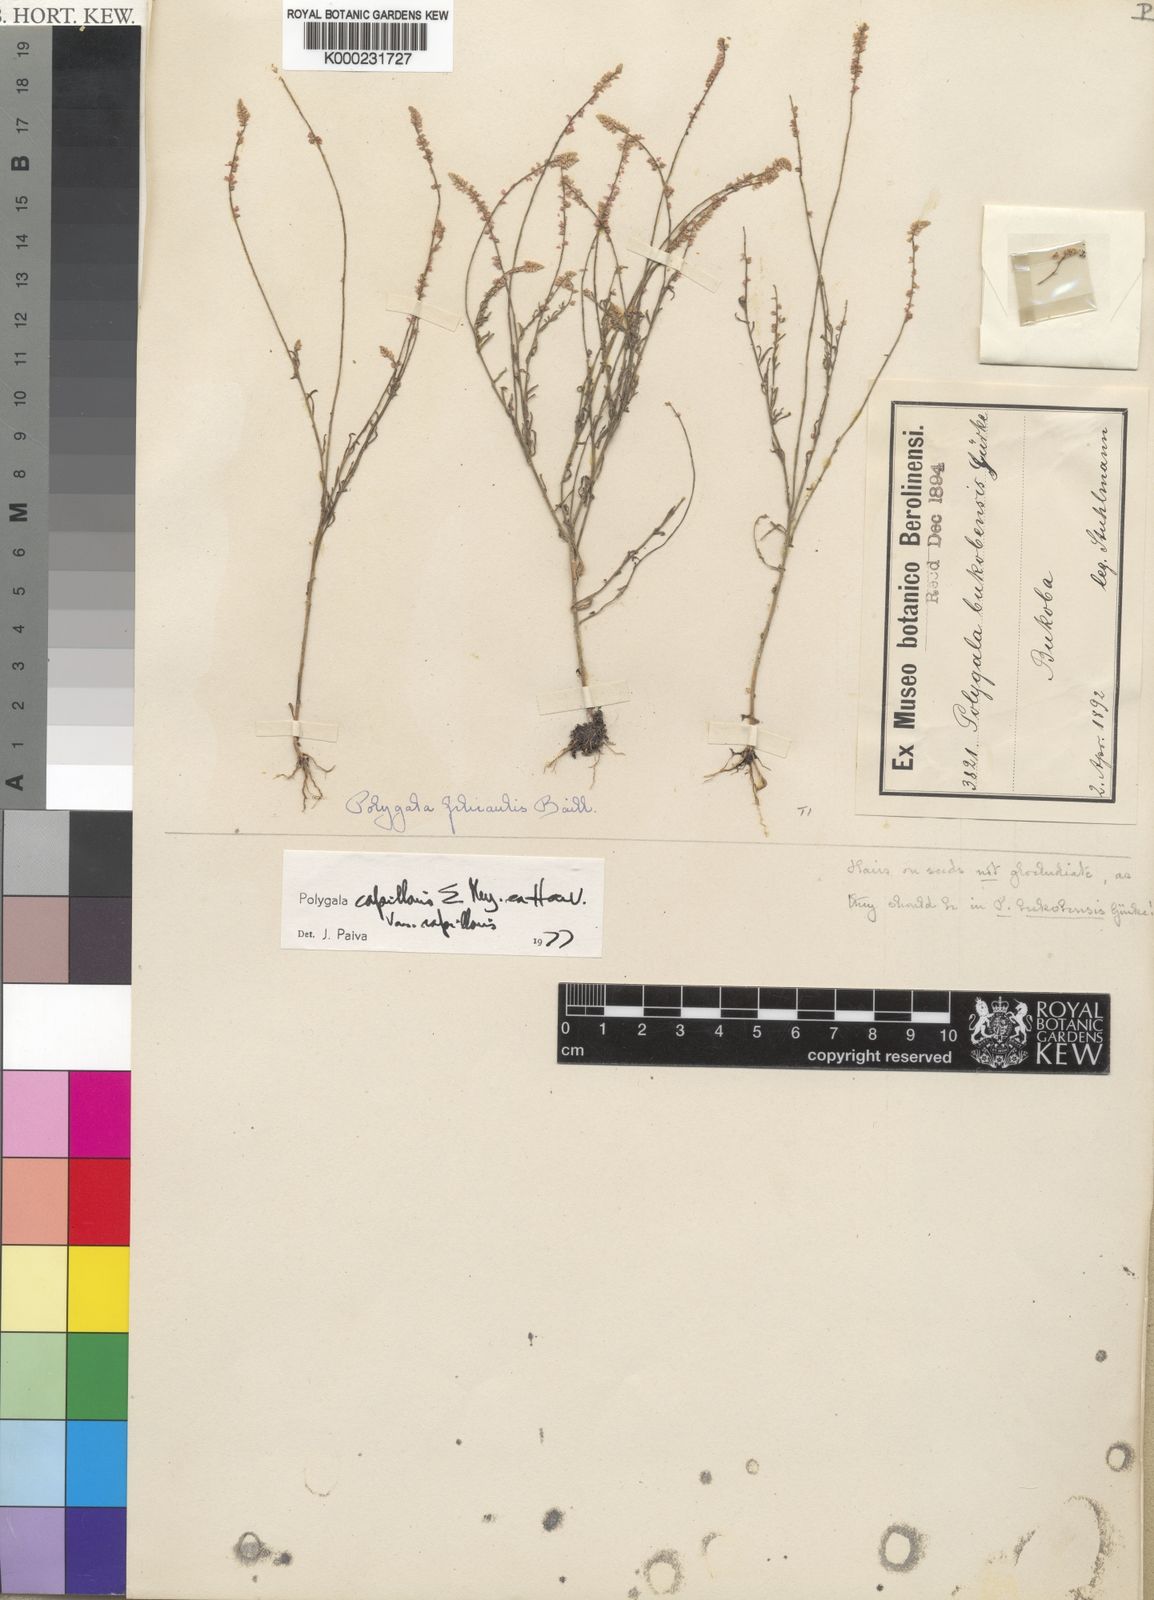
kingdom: Plantae
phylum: Tracheophyta
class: Magnoliopsida
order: Fabales
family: Polygalaceae
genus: Polygala
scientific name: Polygala capillaris
